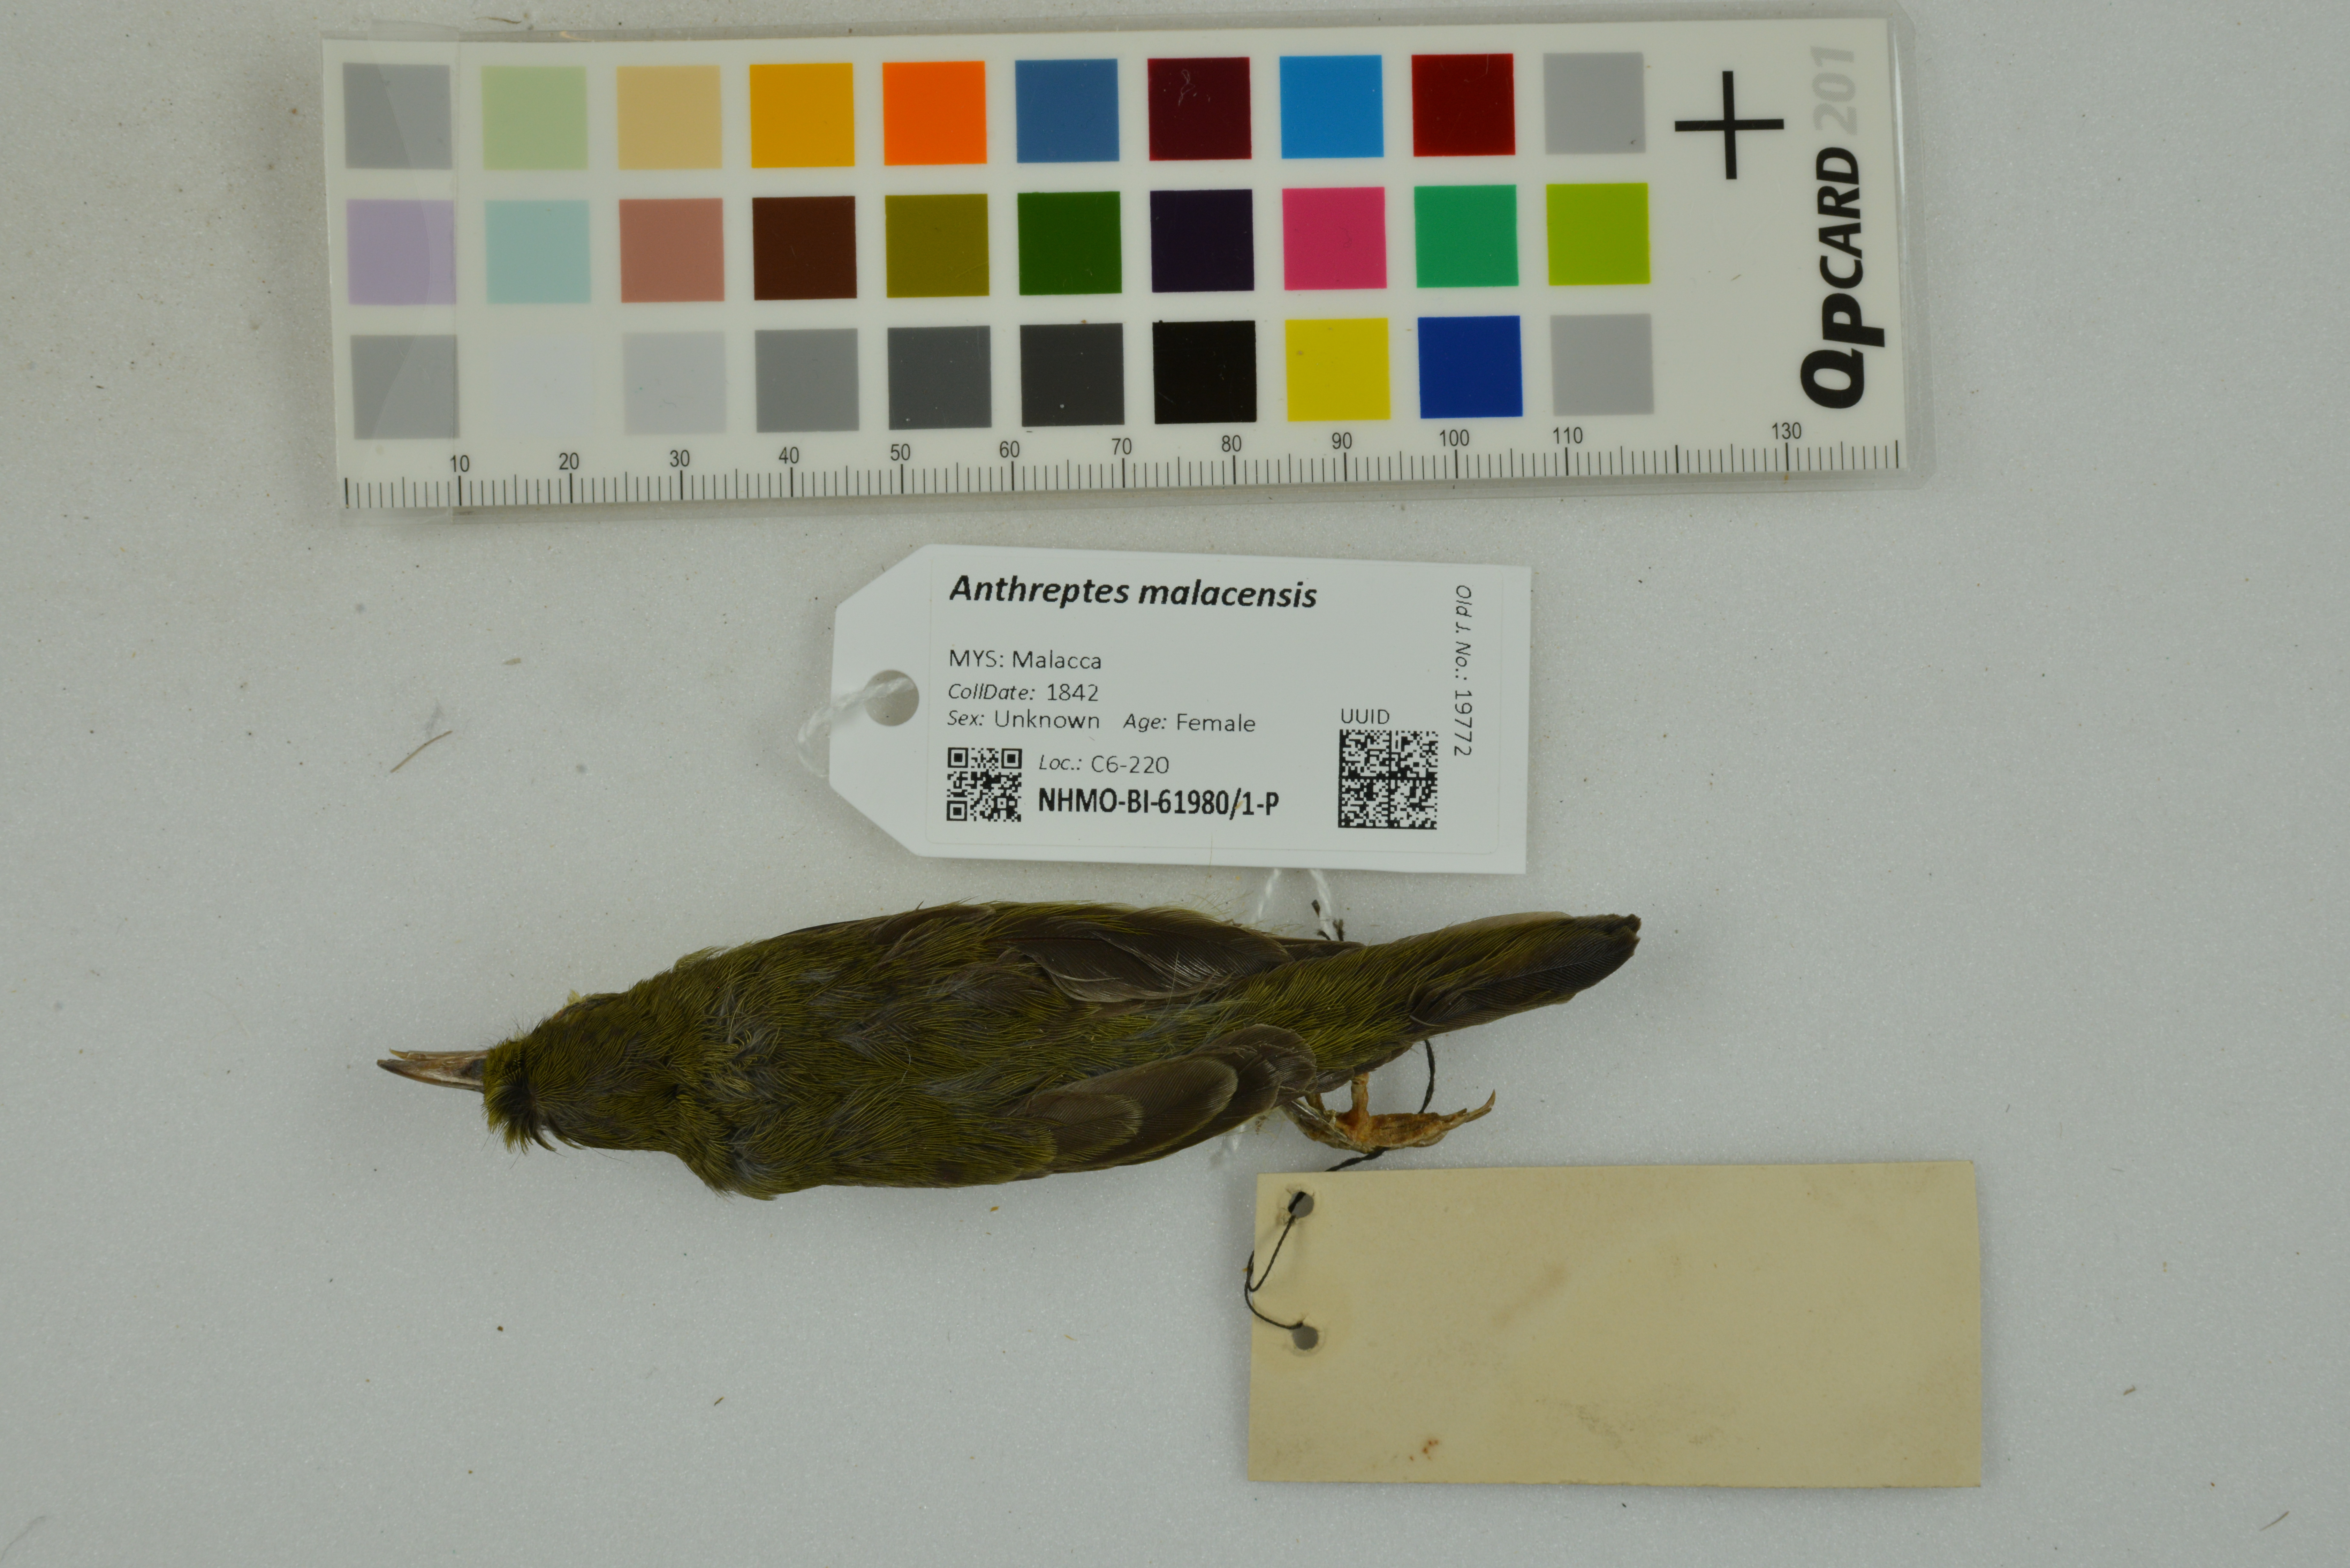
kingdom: Animalia
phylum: Chordata
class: Aves
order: Passeriformes
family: Nectariniidae
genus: Anthreptes
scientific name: Anthreptes malacensis
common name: Brown-throated sunbird
